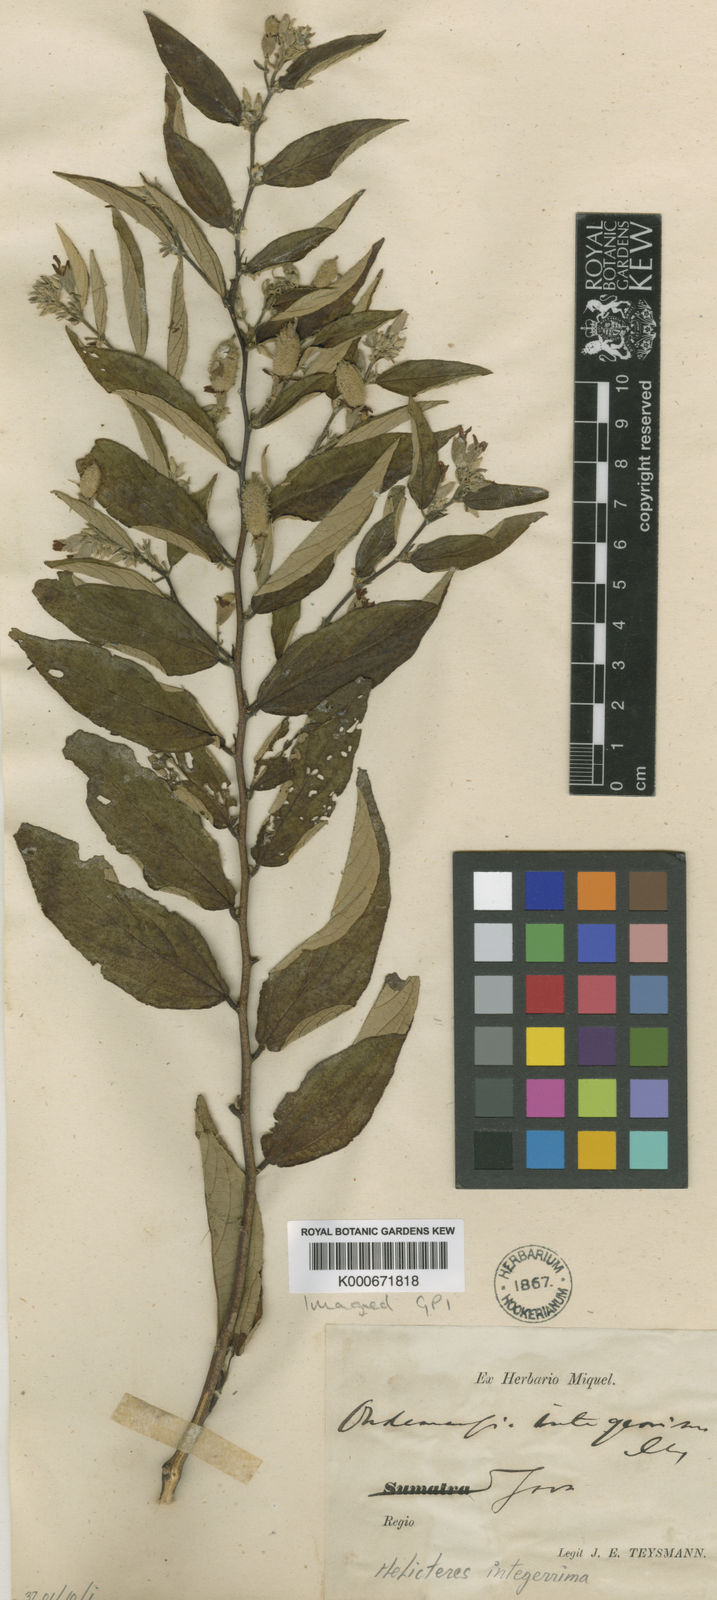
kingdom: Plantae
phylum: Tracheophyta
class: Magnoliopsida
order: Malvales
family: Malvaceae
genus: Helicteres
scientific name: Helicteres integerrima
